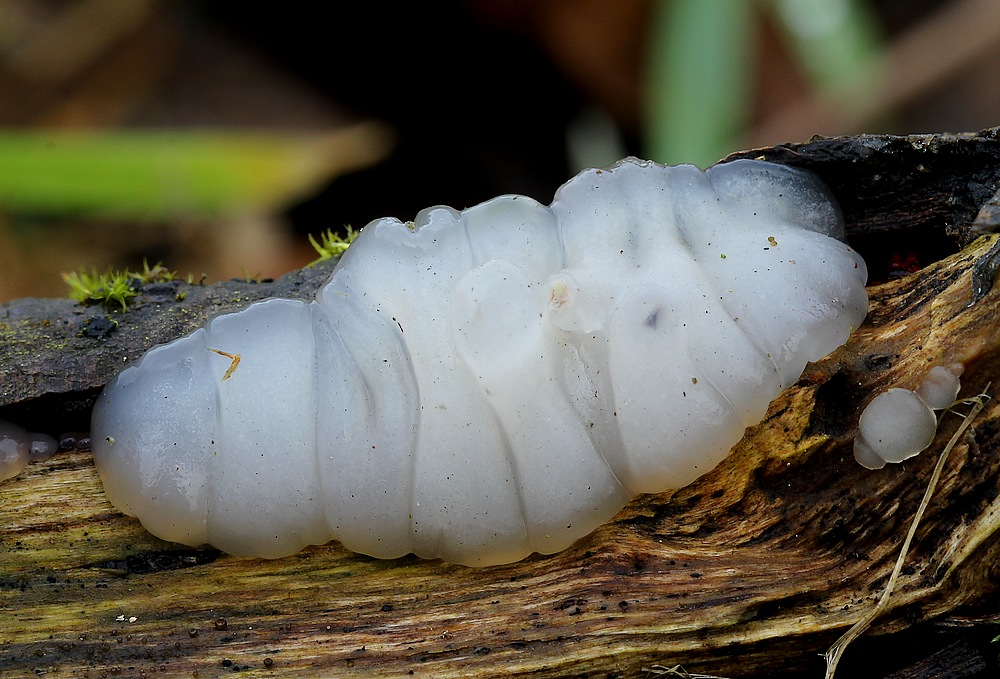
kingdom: Fungi
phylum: Basidiomycota
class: Agaricomycetes
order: Auriculariales
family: Auriculariaceae
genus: Exidia
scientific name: Exidia thuretiana
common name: hvidlig bævretop
